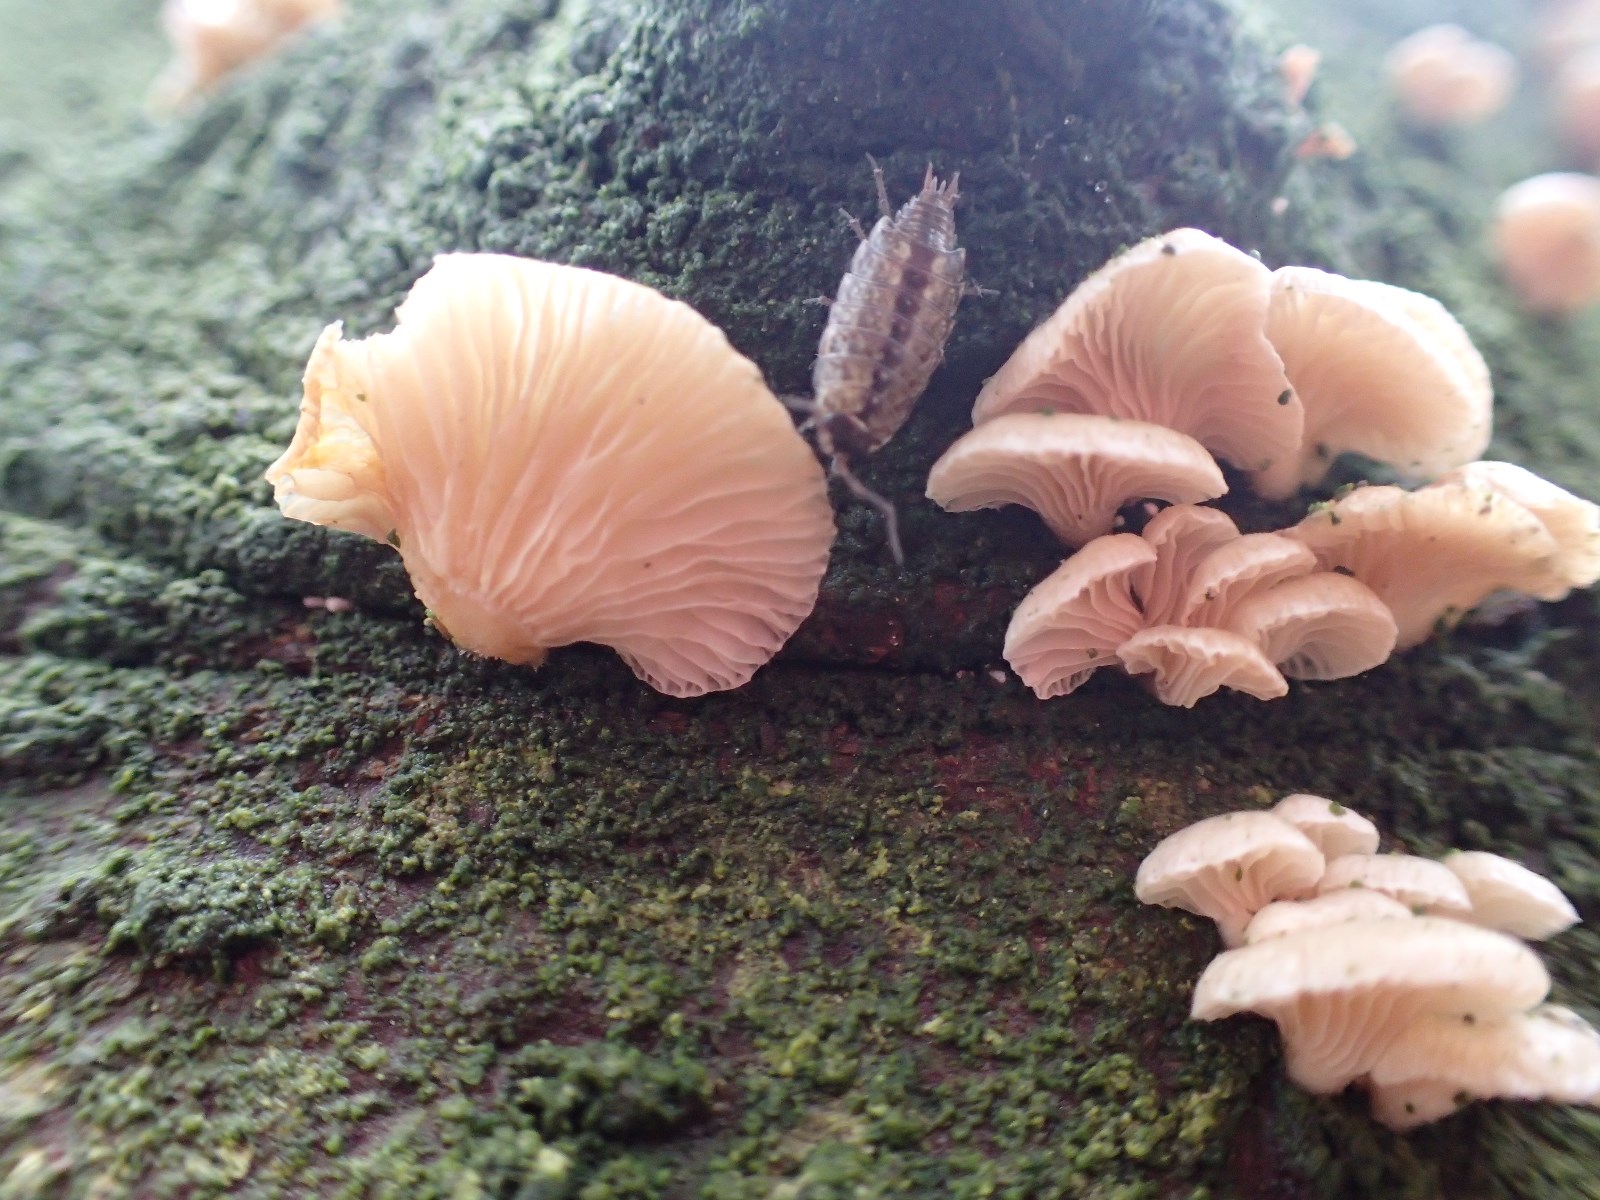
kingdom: Fungi
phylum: Basidiomycota
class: Agaricomycetes
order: Agaricales
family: Mycenaceae
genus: Panellus
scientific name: Panellus mitis
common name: mild epaulethat
